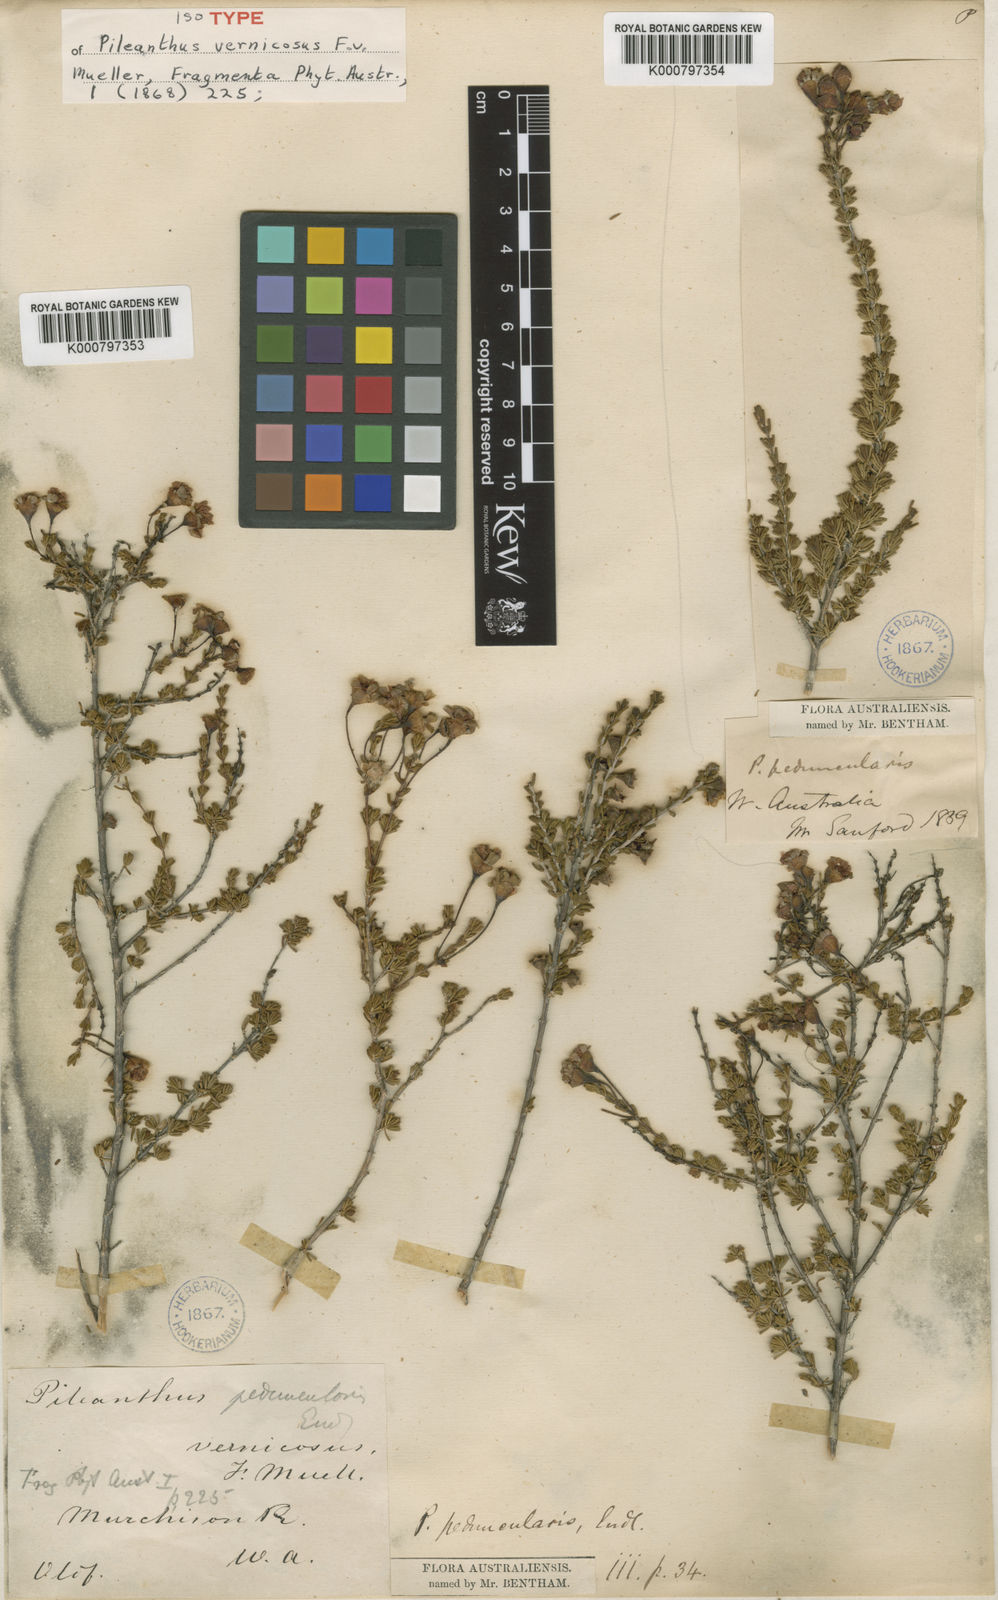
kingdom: Plantae
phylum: Tracheophyta
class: Magnoliopsida
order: Myrtales
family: Myrtaceae
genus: Pileanthus
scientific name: Pileanthus peduncularis
